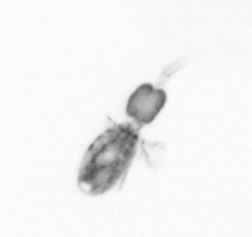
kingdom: Animalia
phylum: Arthropoda
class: Copepoda
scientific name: Copepoda
